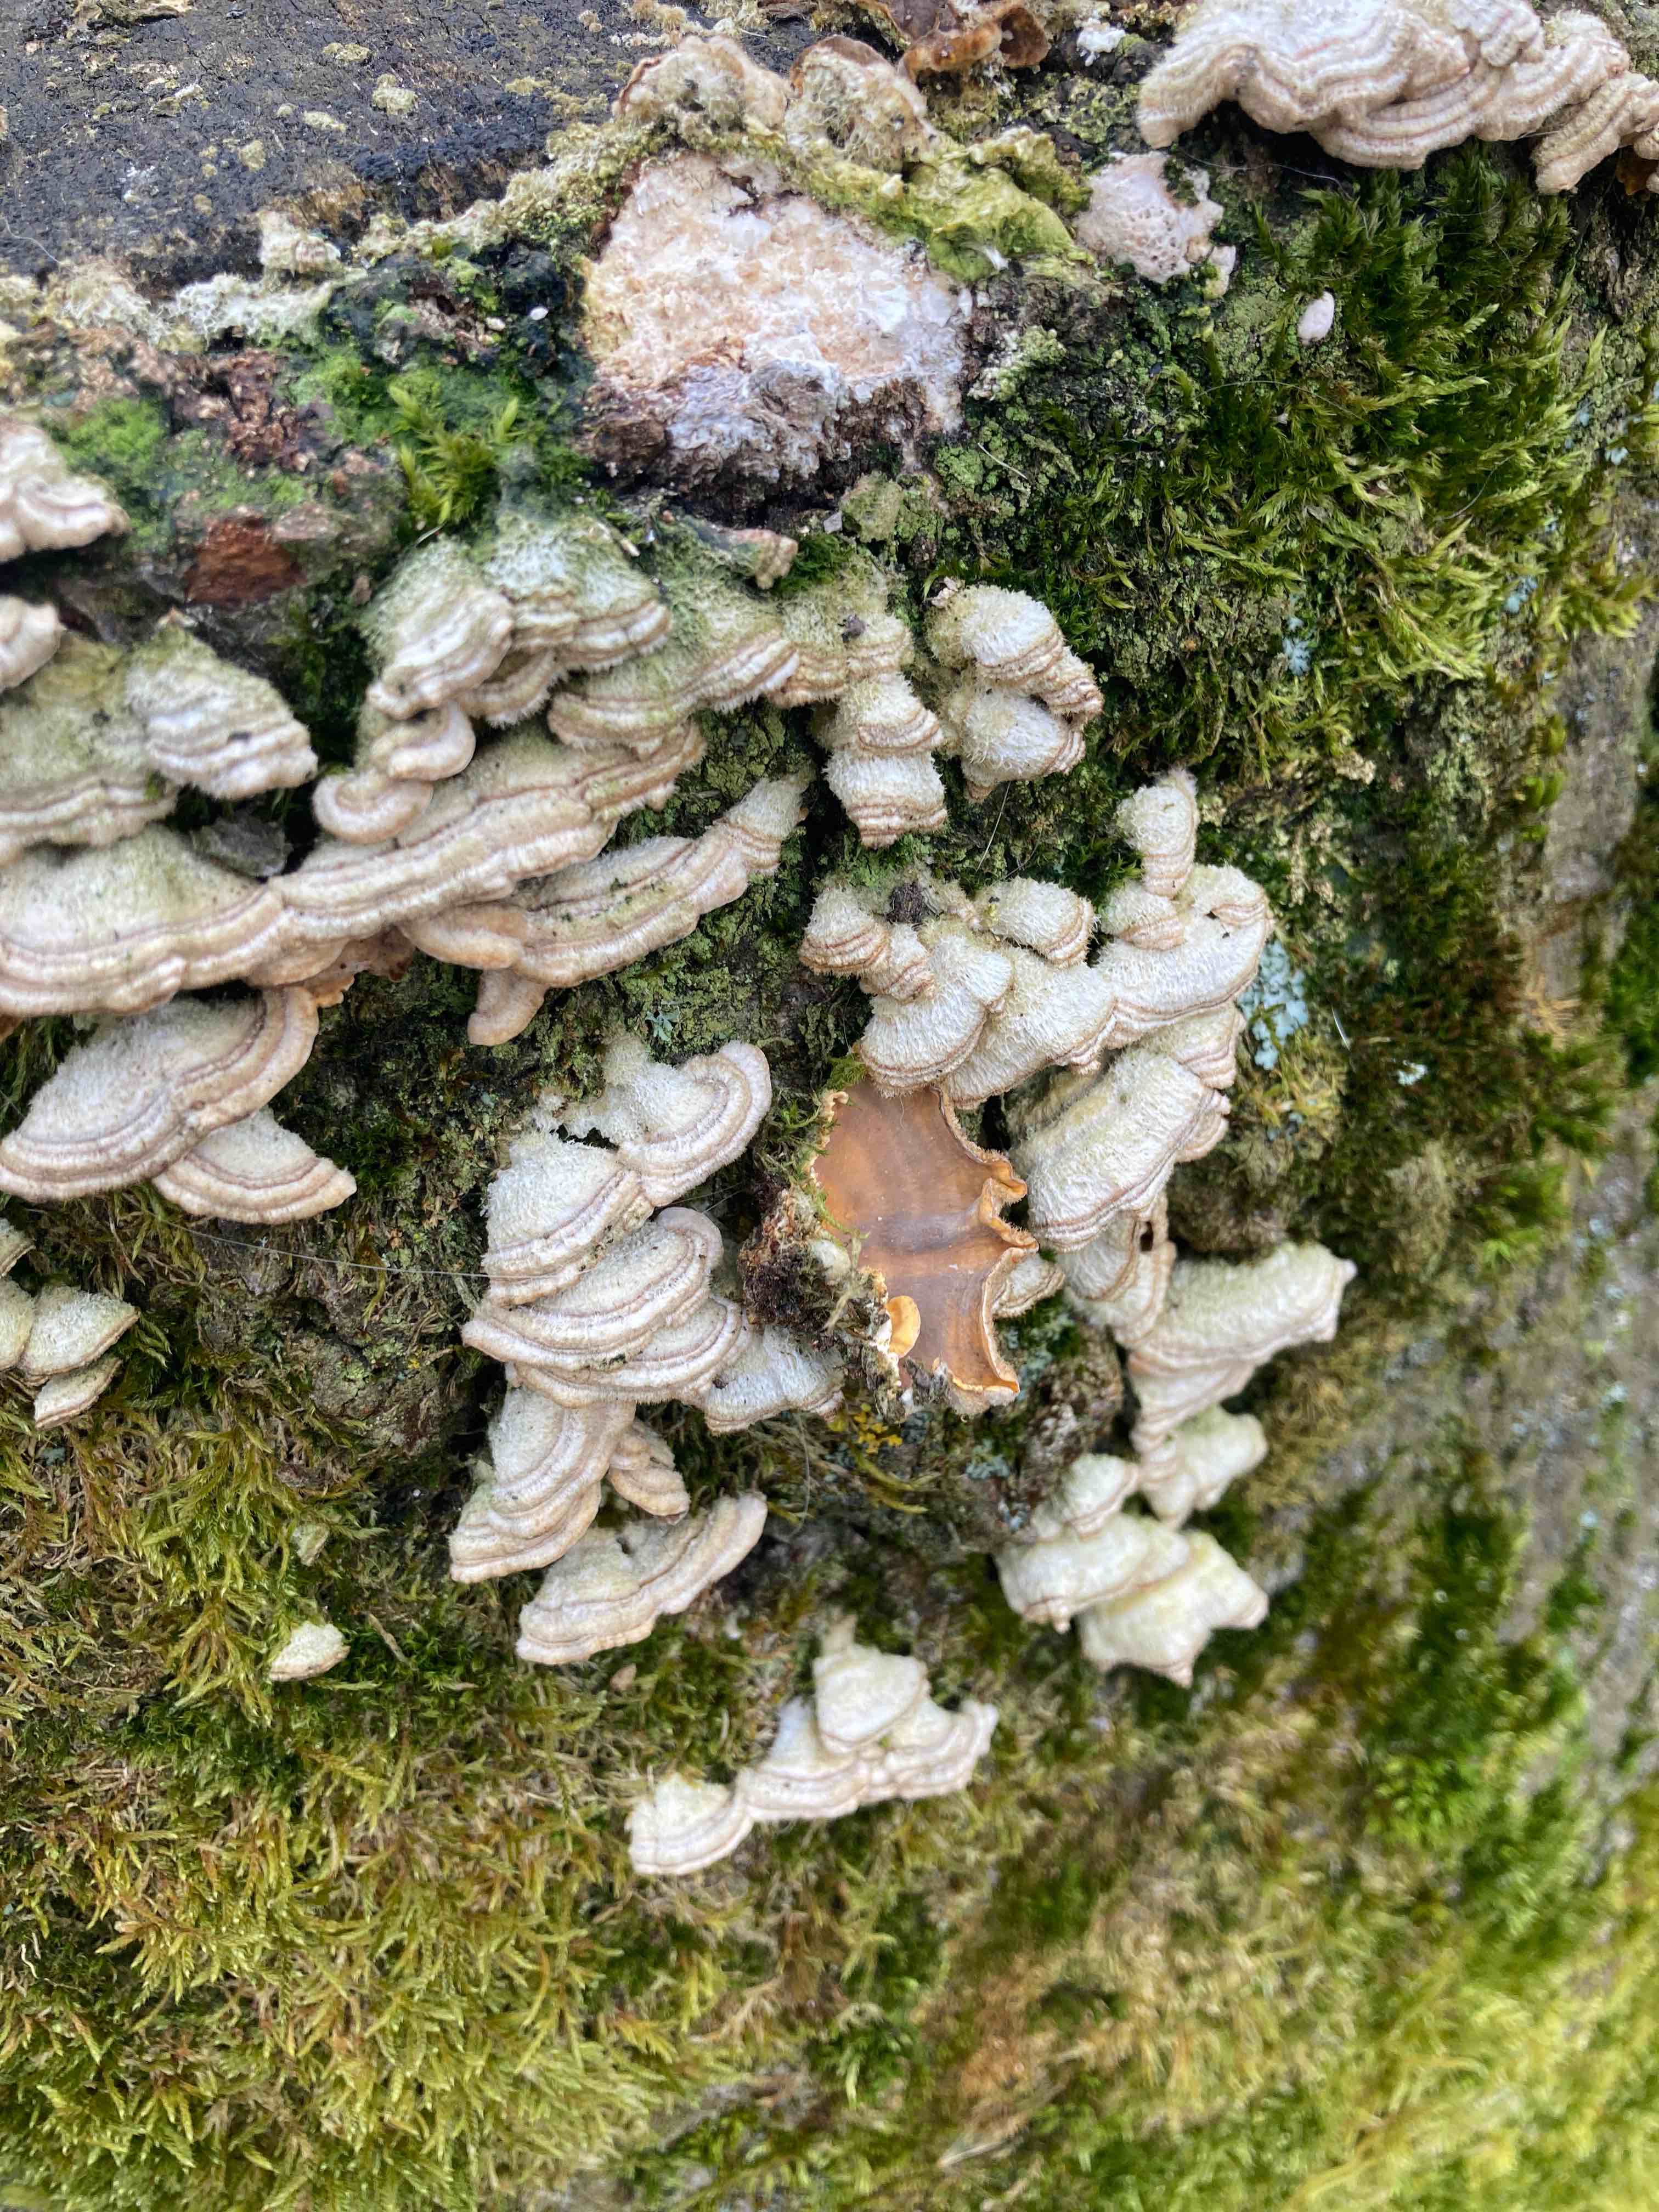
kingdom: Fungi
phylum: Basidiomycota
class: Agaricomycetes
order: Russulales
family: Stereaceae
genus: Stereum
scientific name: Stereum hirsutum
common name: håret lædersvamp
